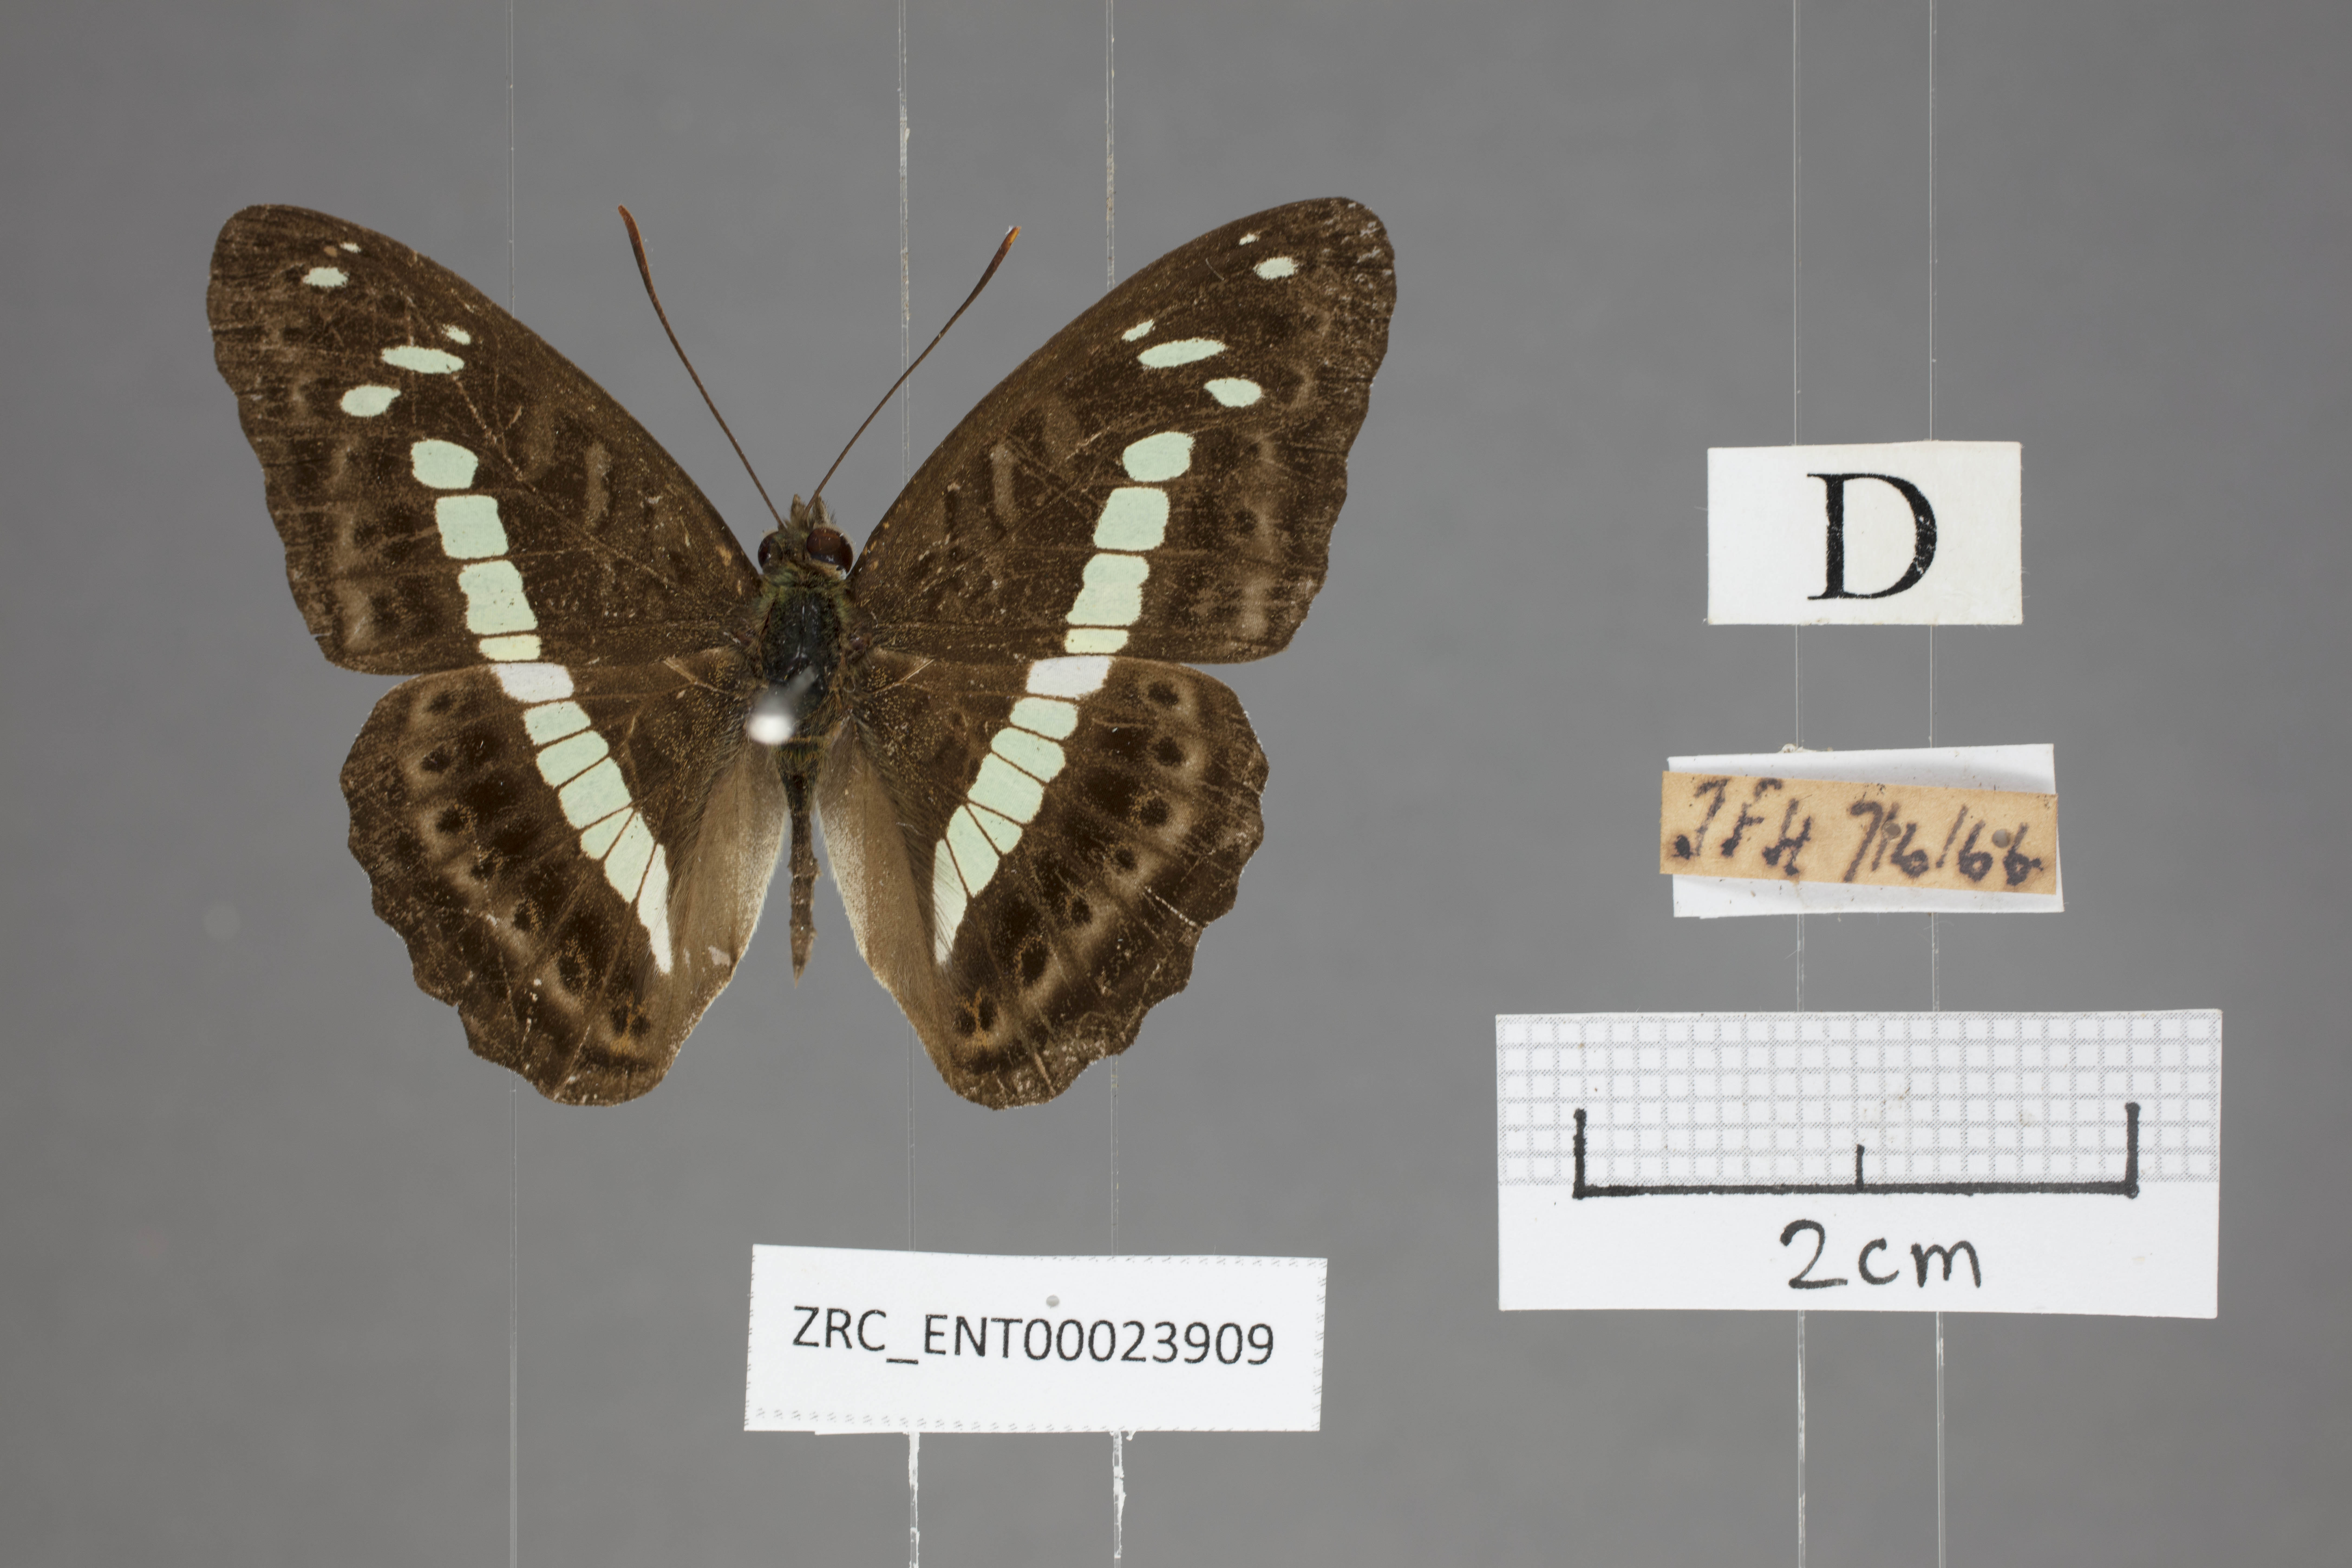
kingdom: Animalia
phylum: Arthropoda
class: Insecta
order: Lepidoptera
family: Nymphalidae
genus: Limenitis
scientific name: Limenitis
